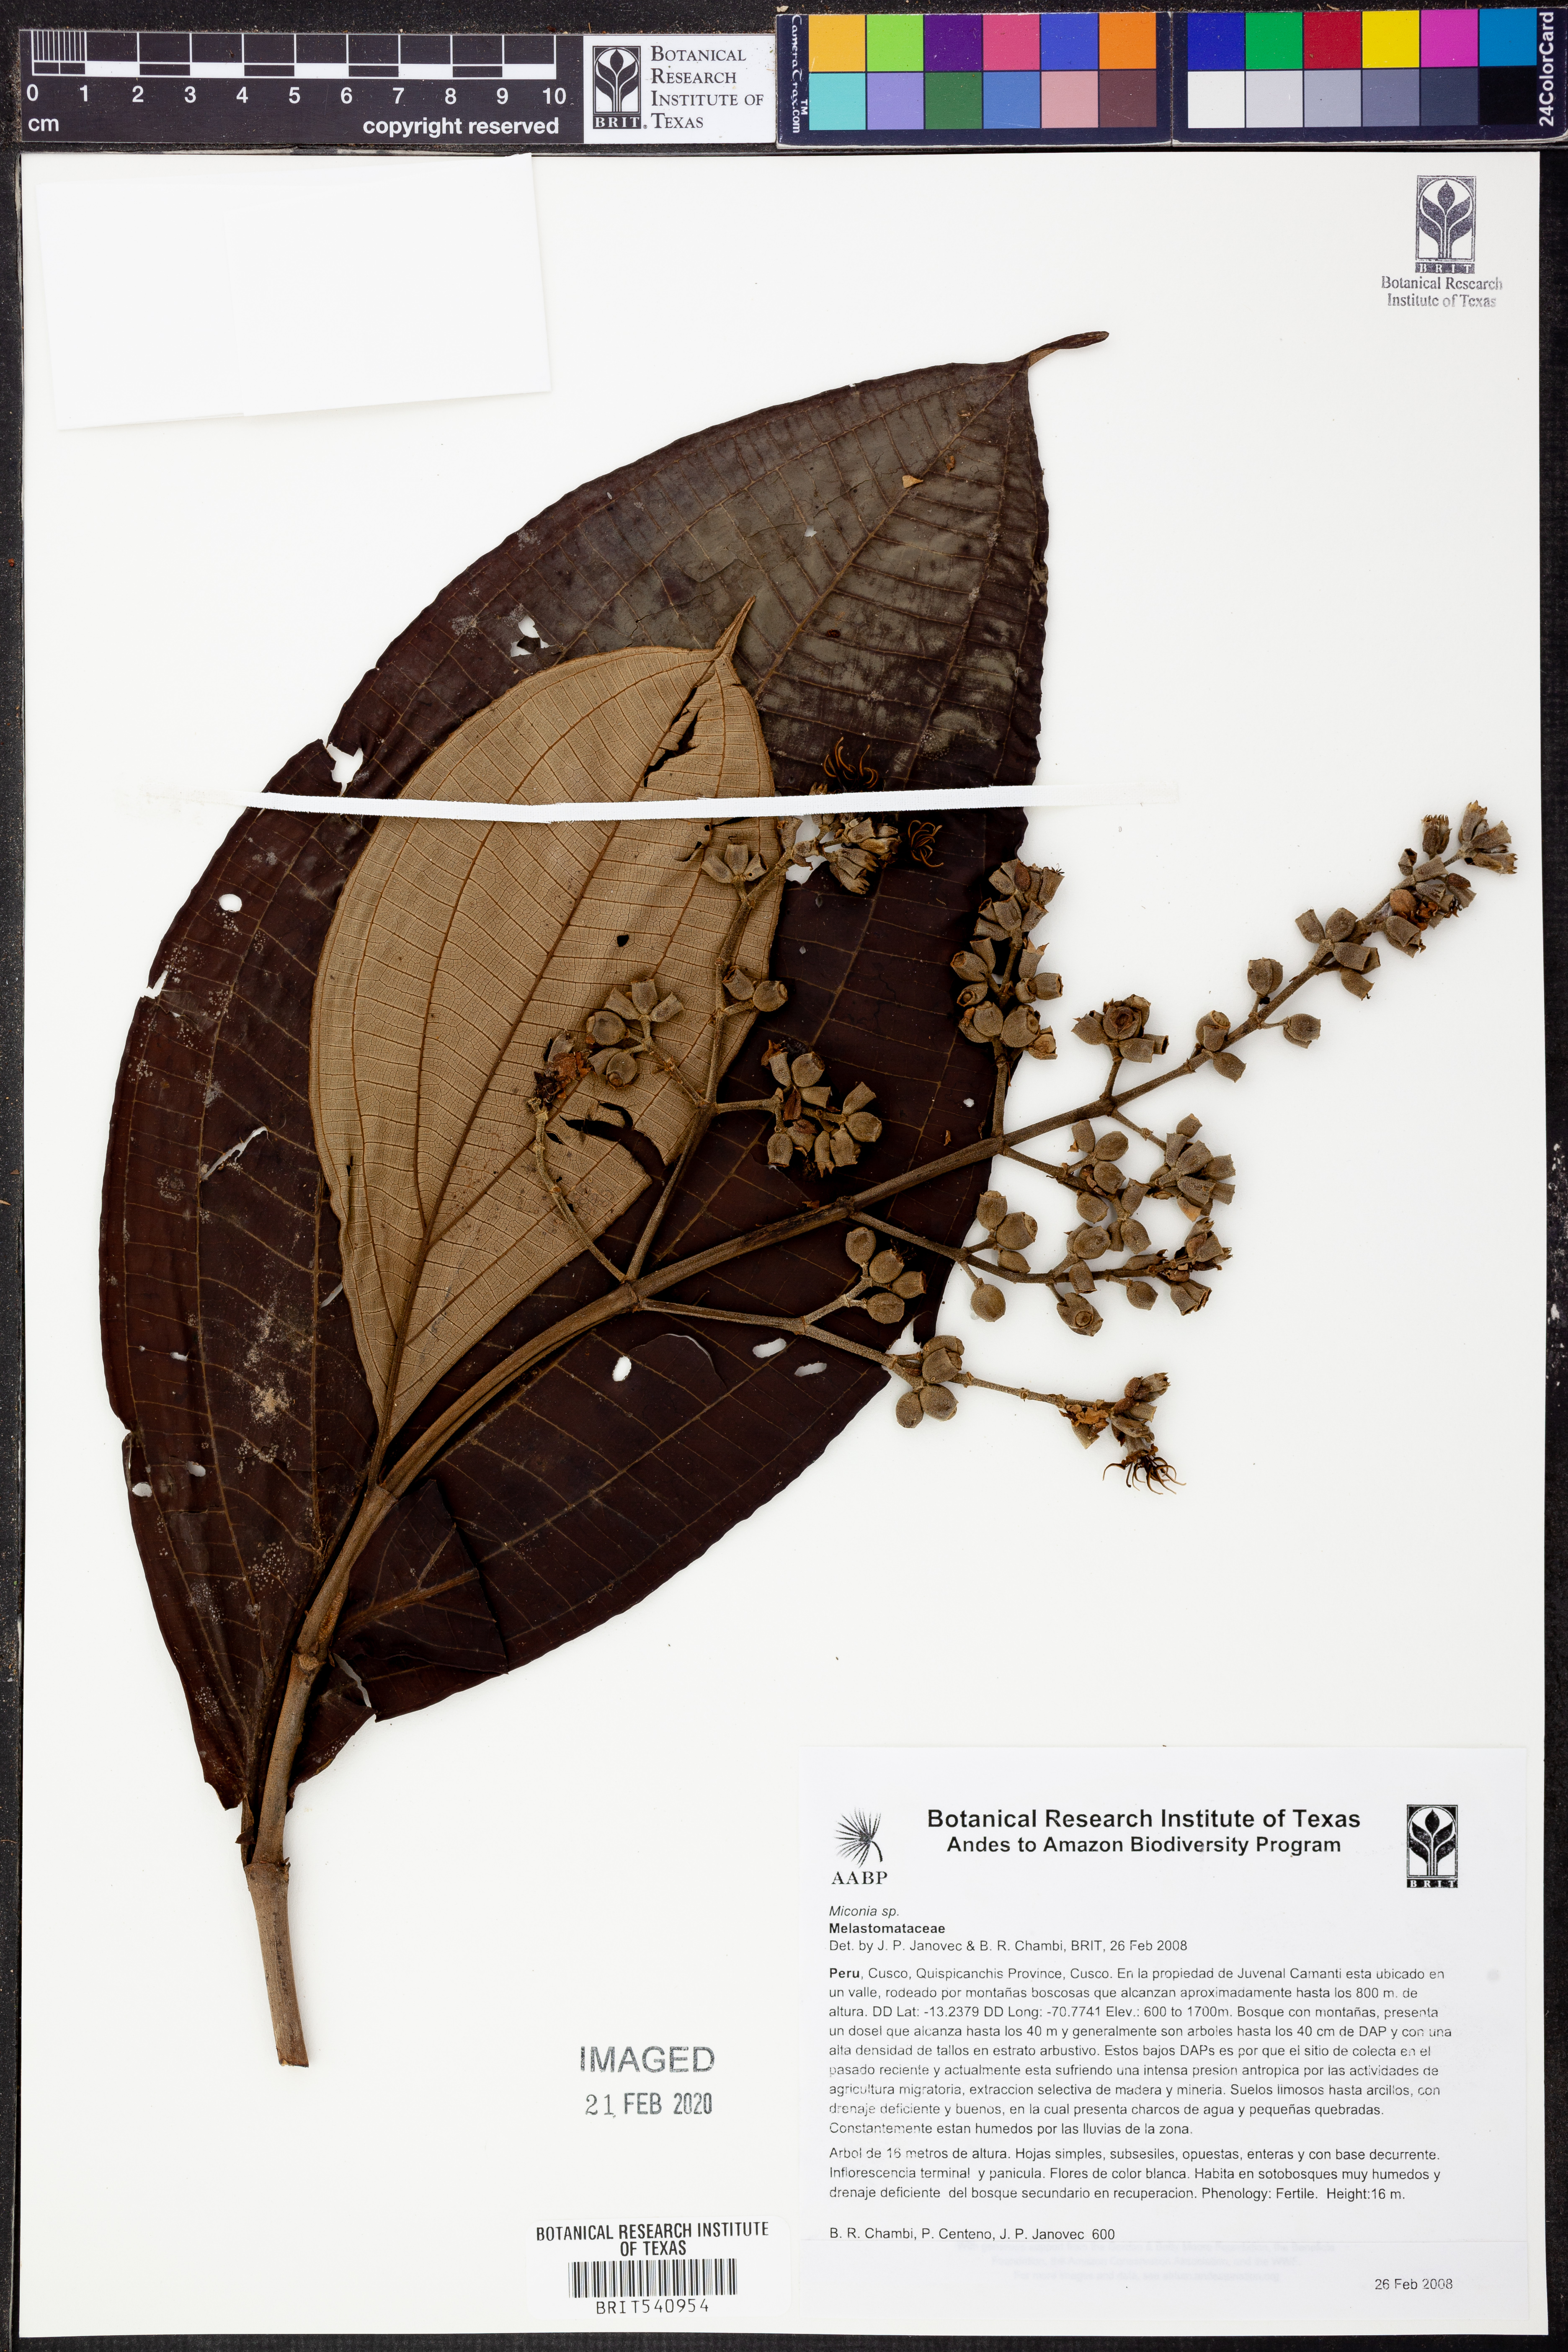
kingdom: Plantae
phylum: Tracheophyta
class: Magnoliopsida
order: Myrtales
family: Melastomataceae
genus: Miconia
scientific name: Miconia
